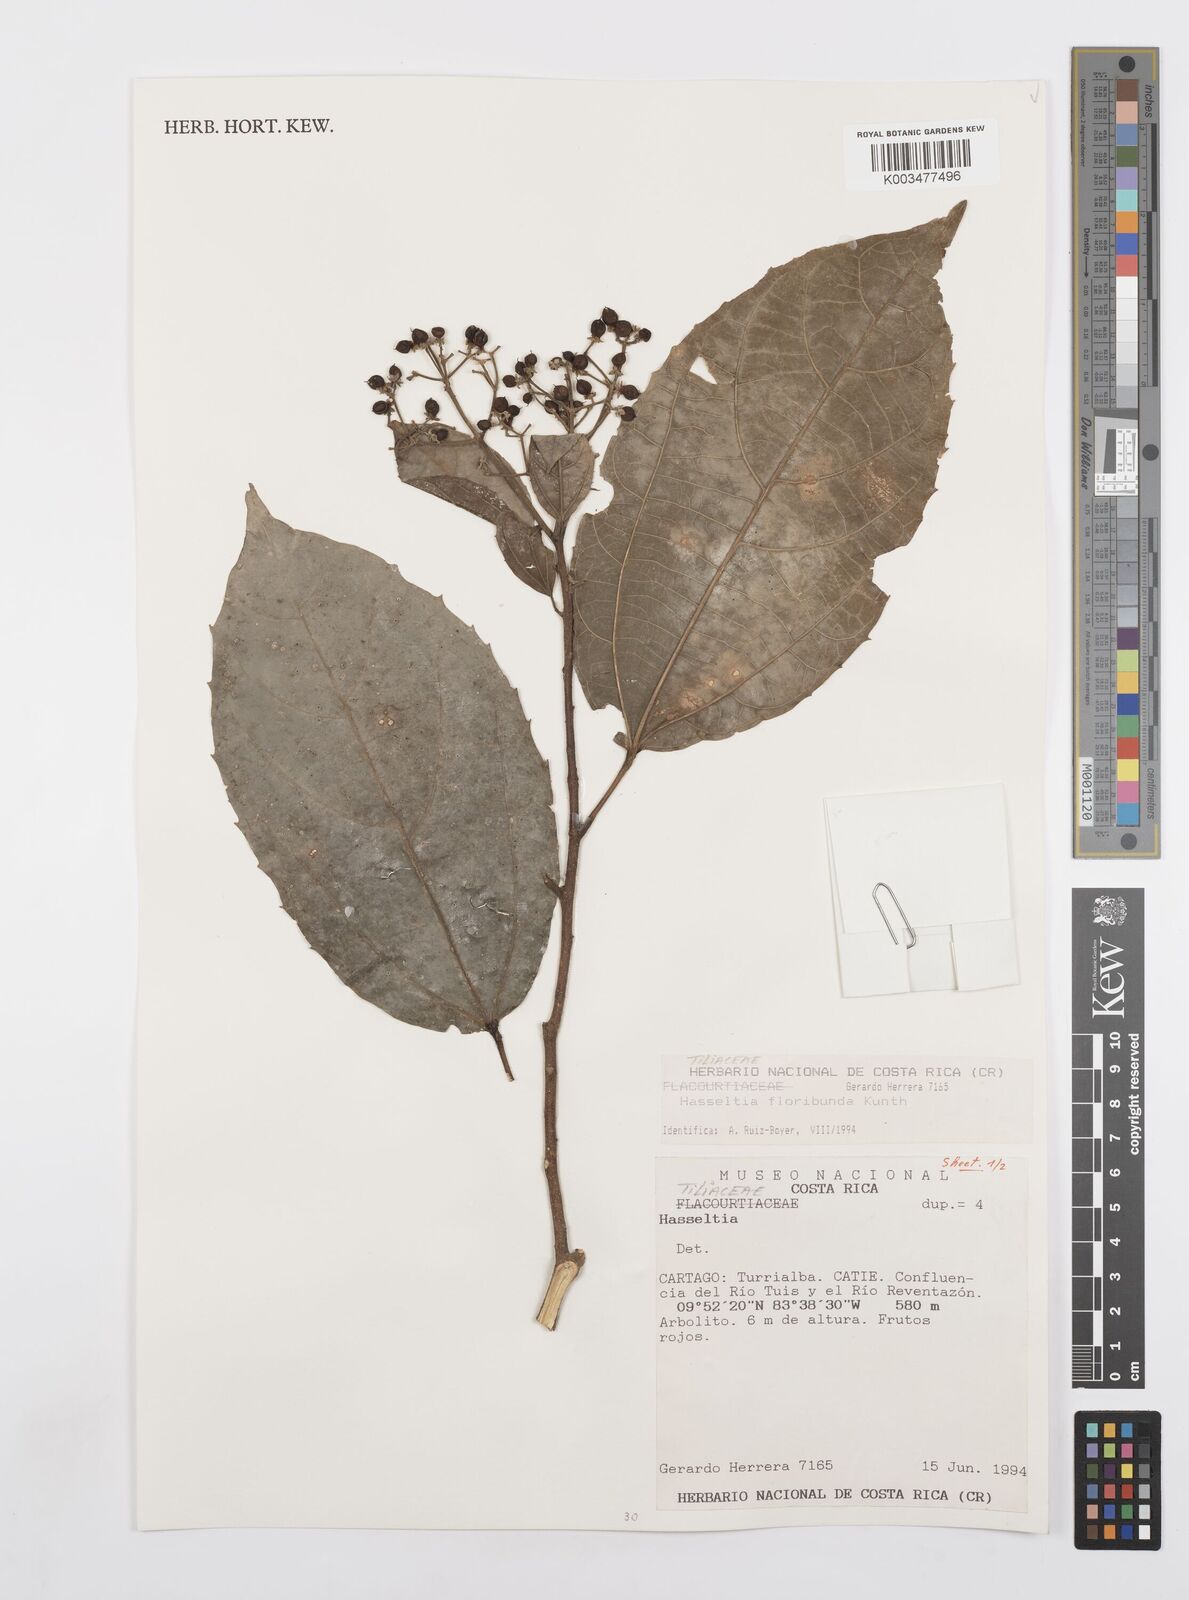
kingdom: Plantae
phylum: Tracheophyta
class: Magnoliopsida
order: Malpighiales
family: Salicaceae
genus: Hasseltia
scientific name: Hasseltia floribunda
